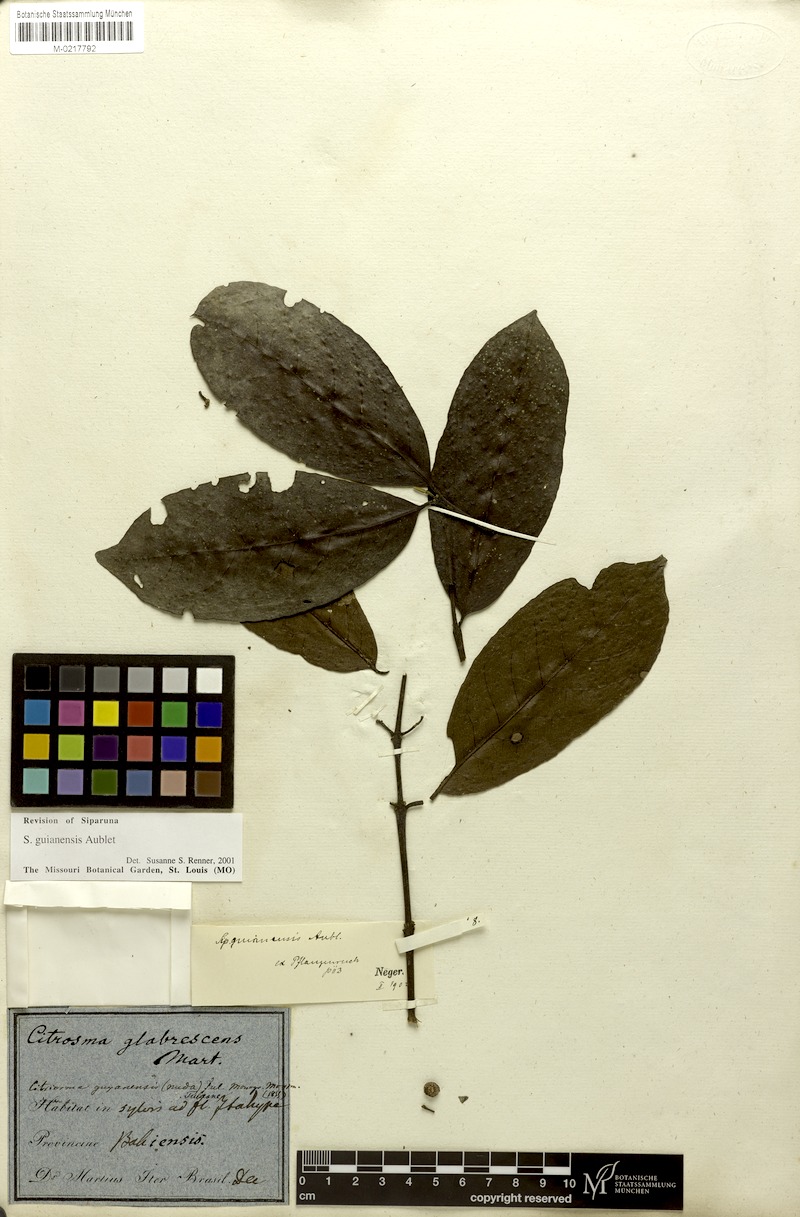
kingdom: Plantae
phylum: Tracheophyta
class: Magnoliopsida
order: Laurales
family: Siparunaceae
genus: Siparuna
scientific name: Siparuna guianensis
